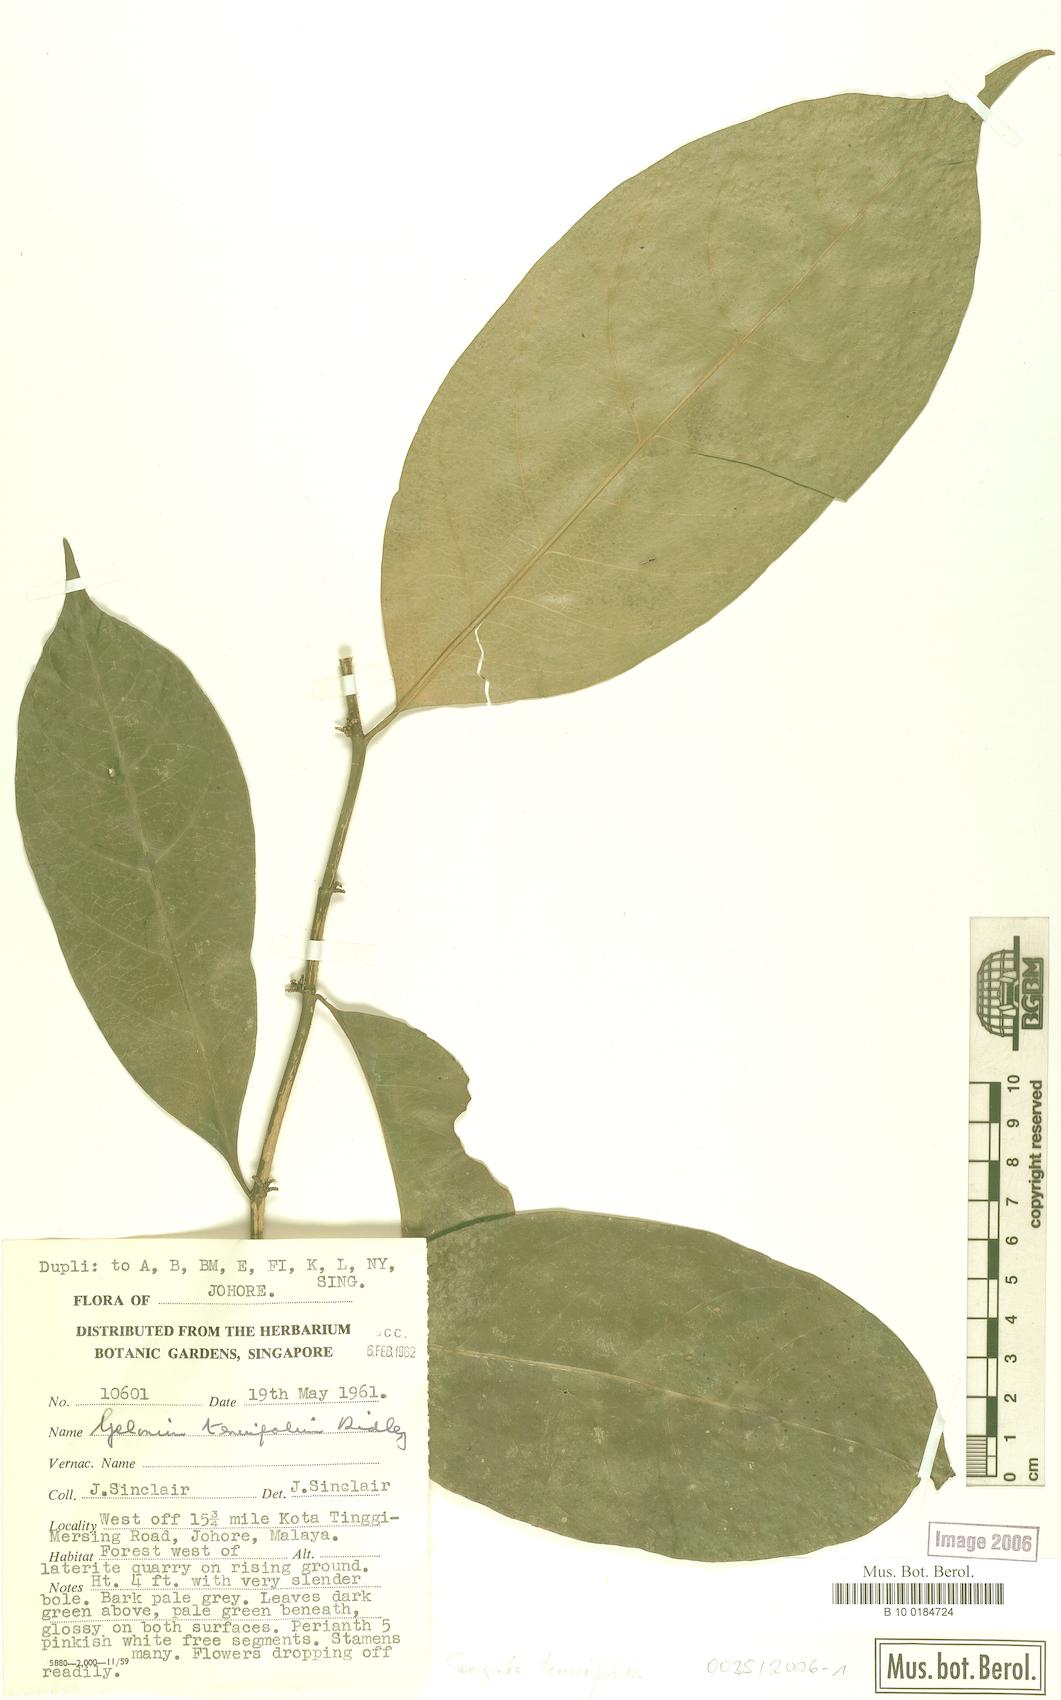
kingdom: Plantae
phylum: Tracheophyta
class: Magnoliopsida
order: Malpighiales
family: Euphorbiaceae
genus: Suregada
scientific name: Suregada multiflora
